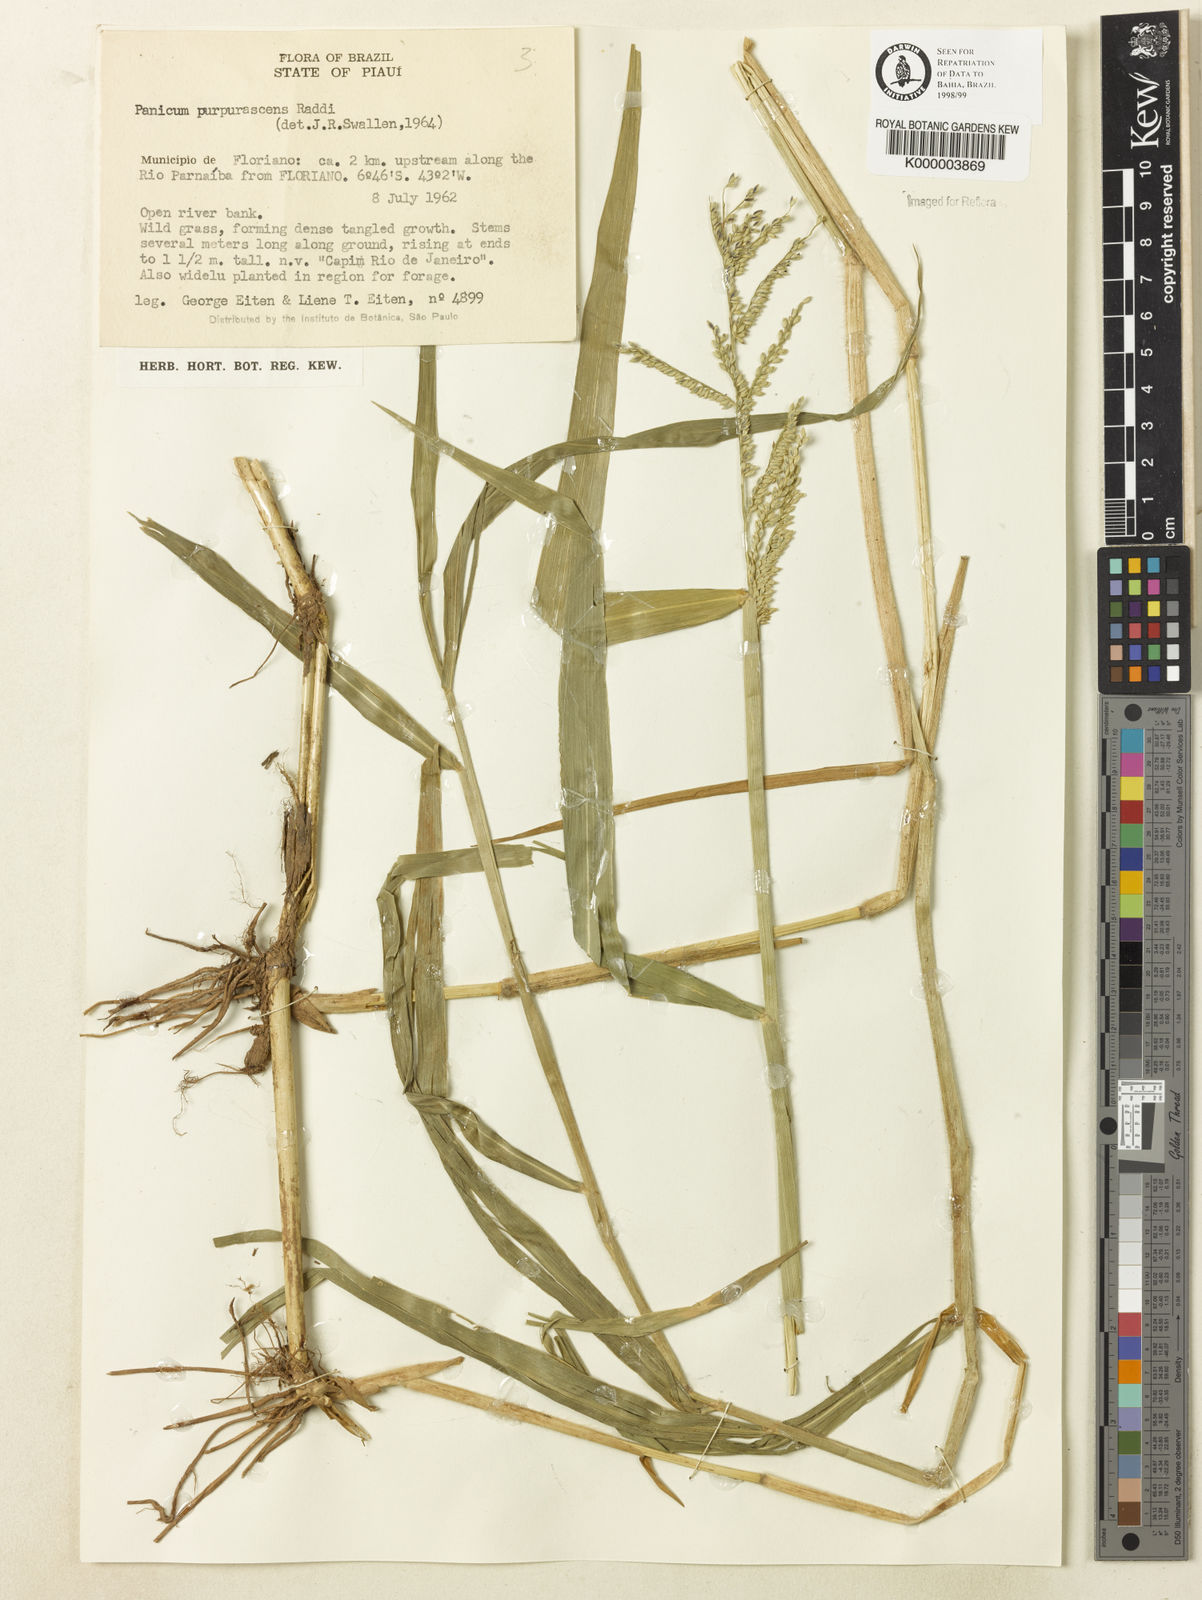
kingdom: Plantae
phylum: Tracheophyta
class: Liliopsida
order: Poales
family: Poaceae
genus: Urochloa
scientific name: Urochloa mutica
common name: Para grass
